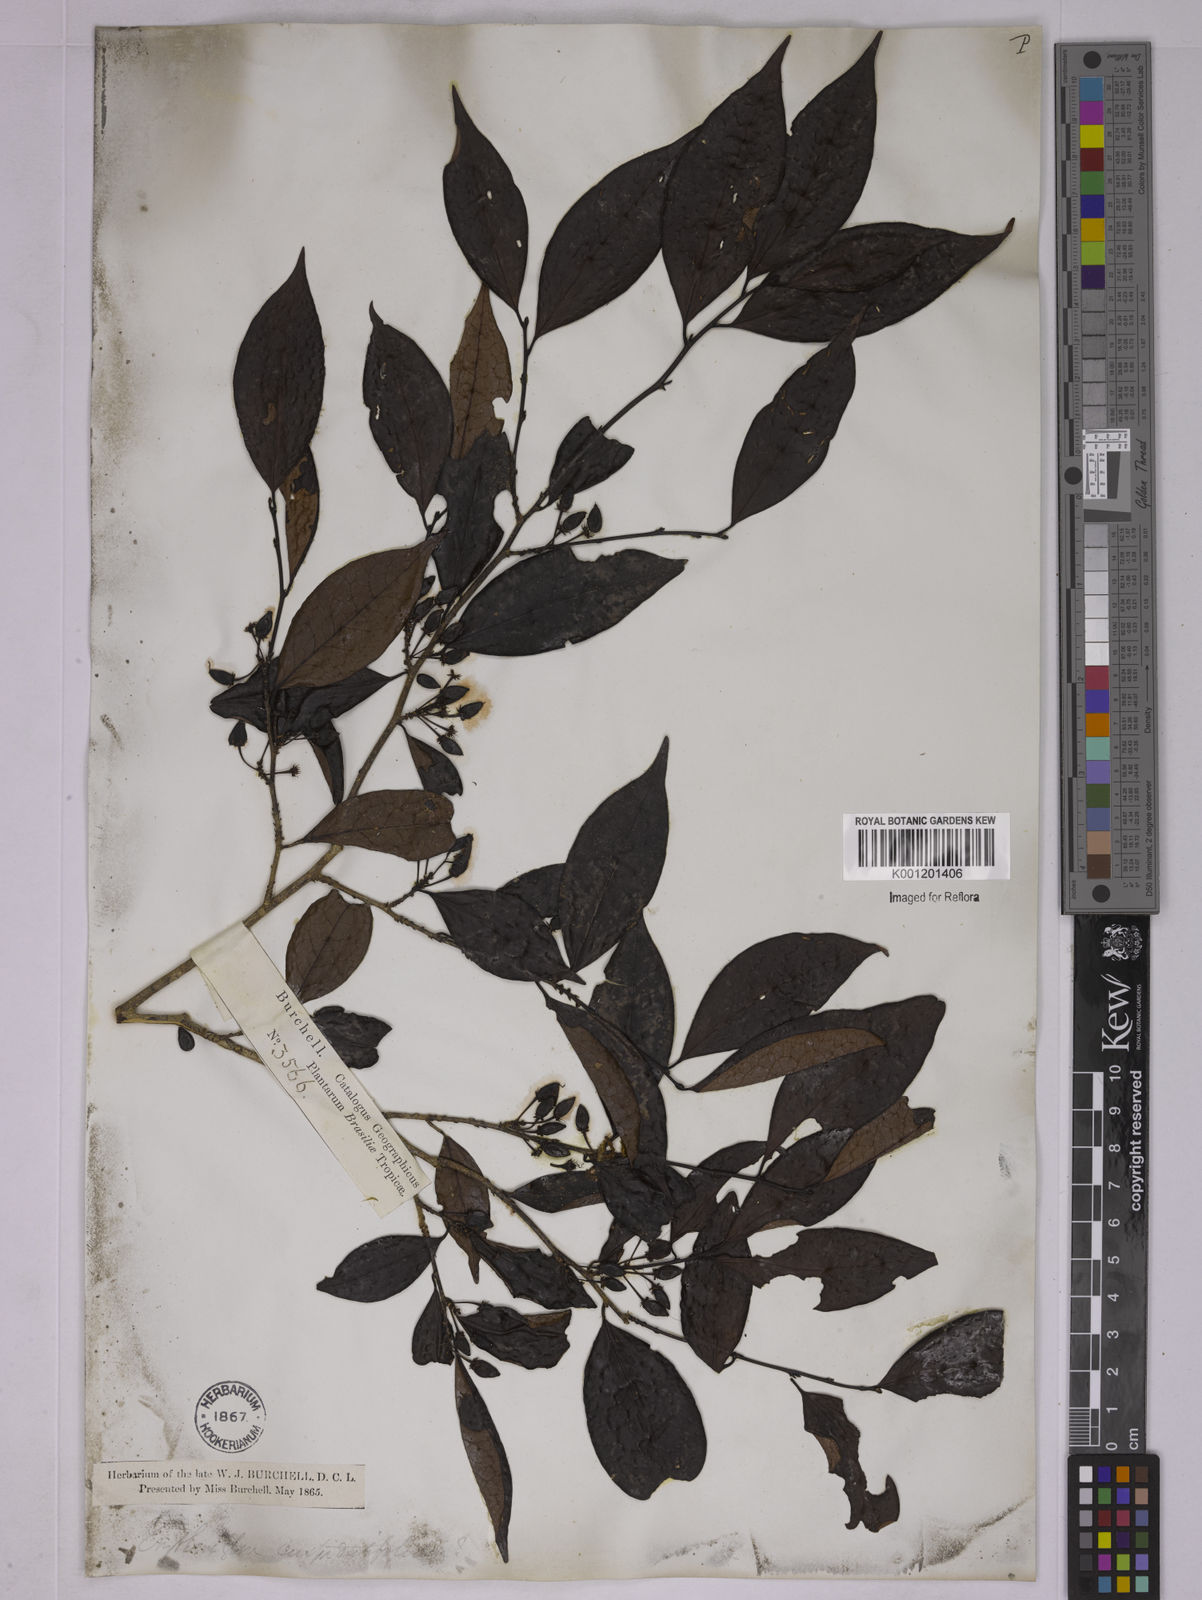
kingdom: Plantae
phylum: Tracheophyta
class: Magnoliopsida
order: Malpighiales
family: Erythroxylaceae
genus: Erythroxylum
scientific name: Erythroxylum cuspidifolium
